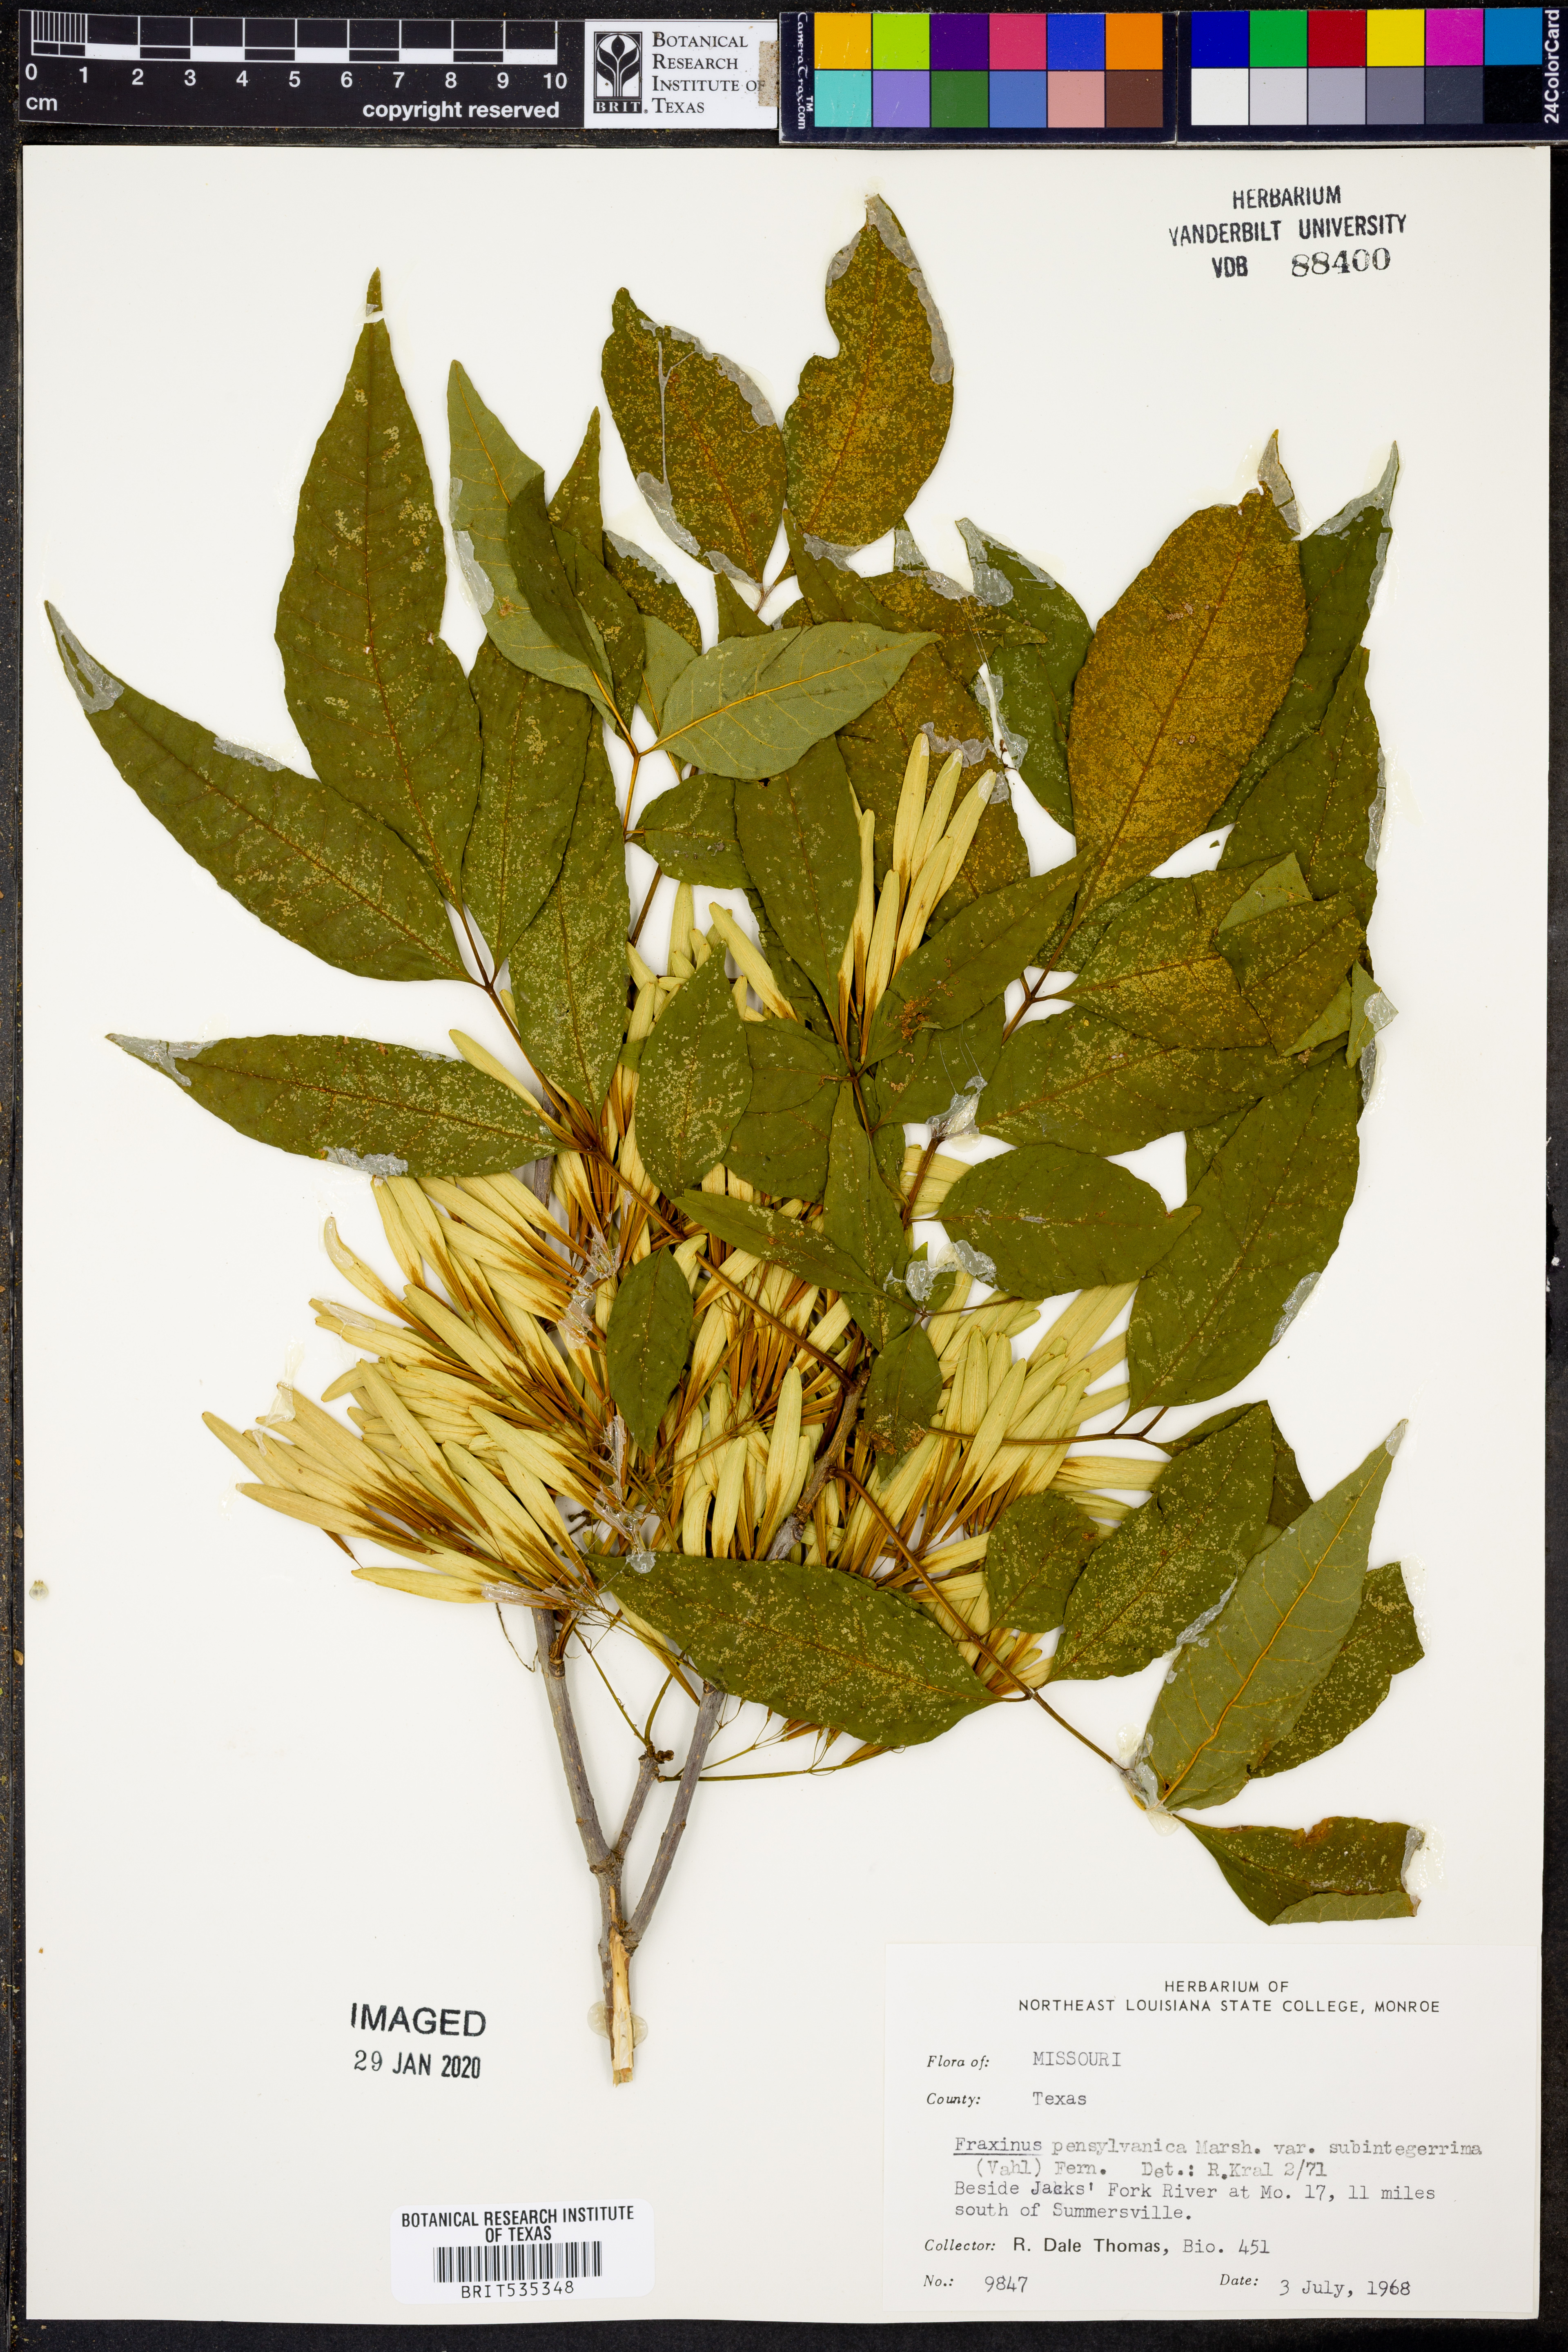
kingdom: Plantae
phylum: Tracheophyta
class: Magnoliopsida
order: Lamiales
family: Oleaceae
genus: Fraxinus
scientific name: Fraxinus pennsylvanica
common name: Green ash
